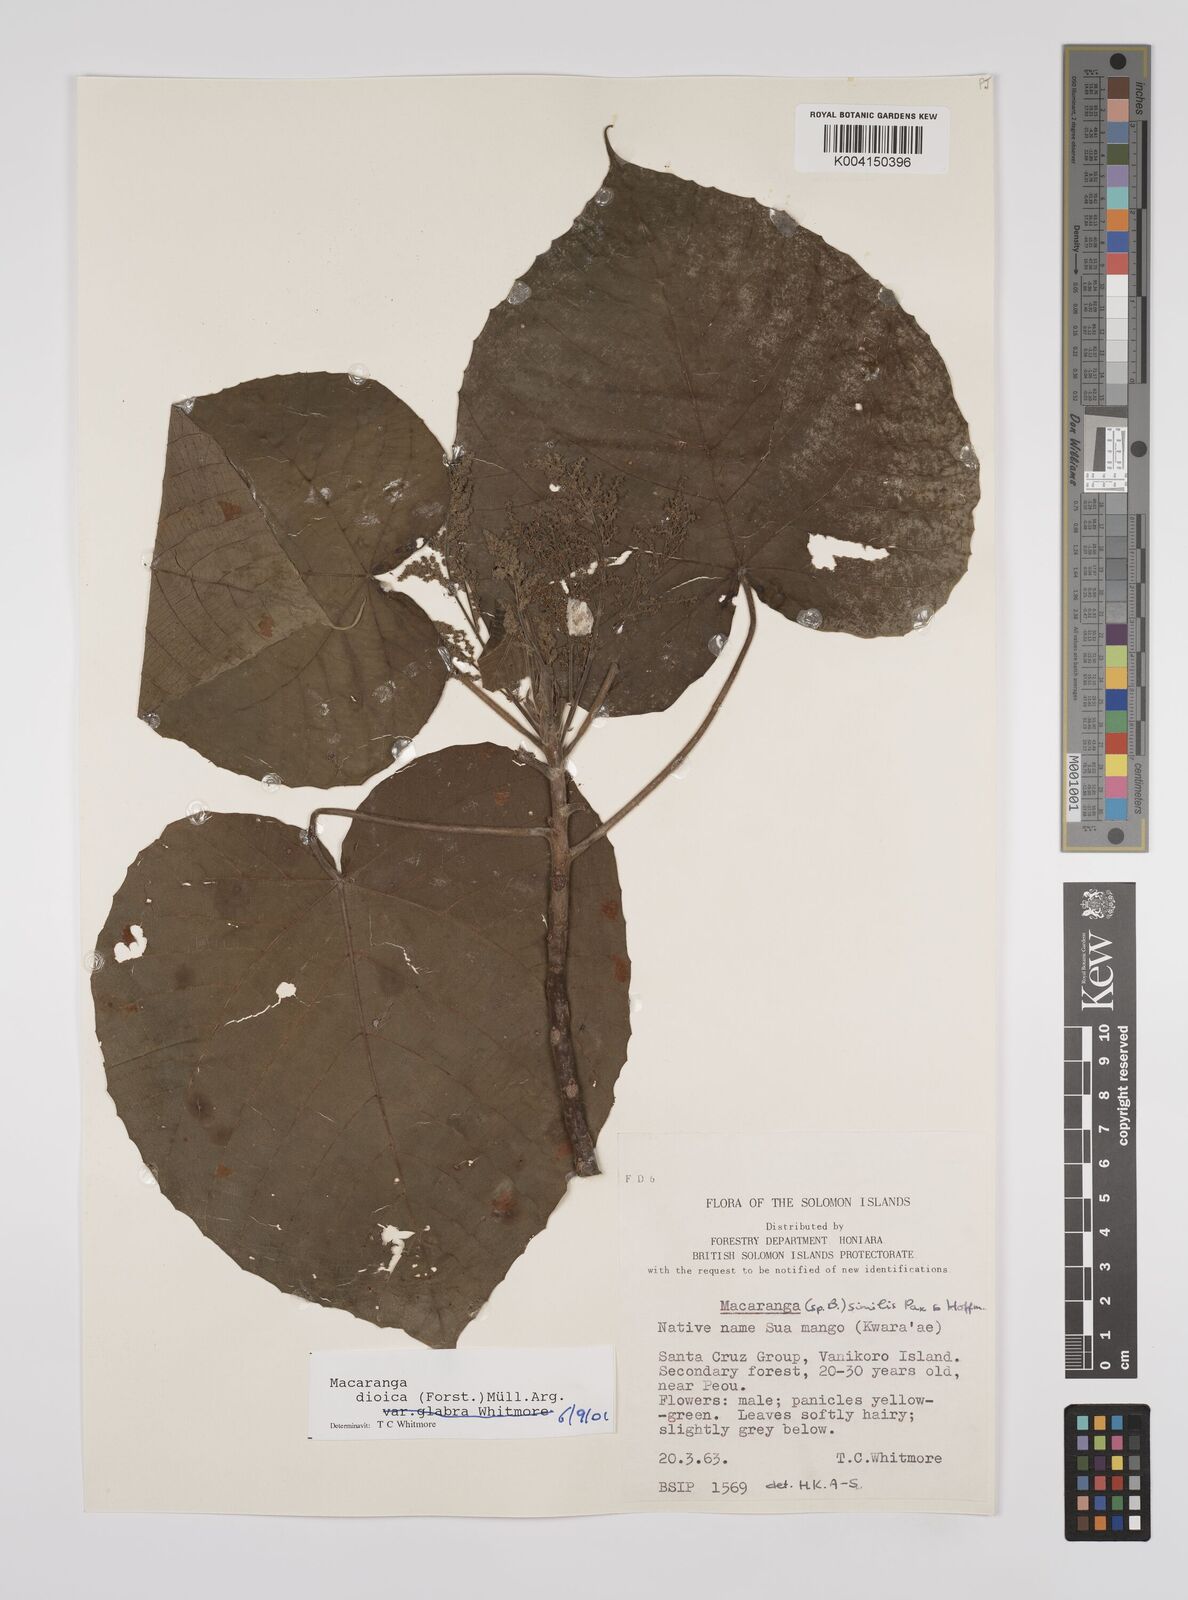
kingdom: Plantae
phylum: Tracheophyta
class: Magnoliopsida
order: Malpighiales
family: Euphorbiaceae
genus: Macaranga
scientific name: Macaranga dioica
